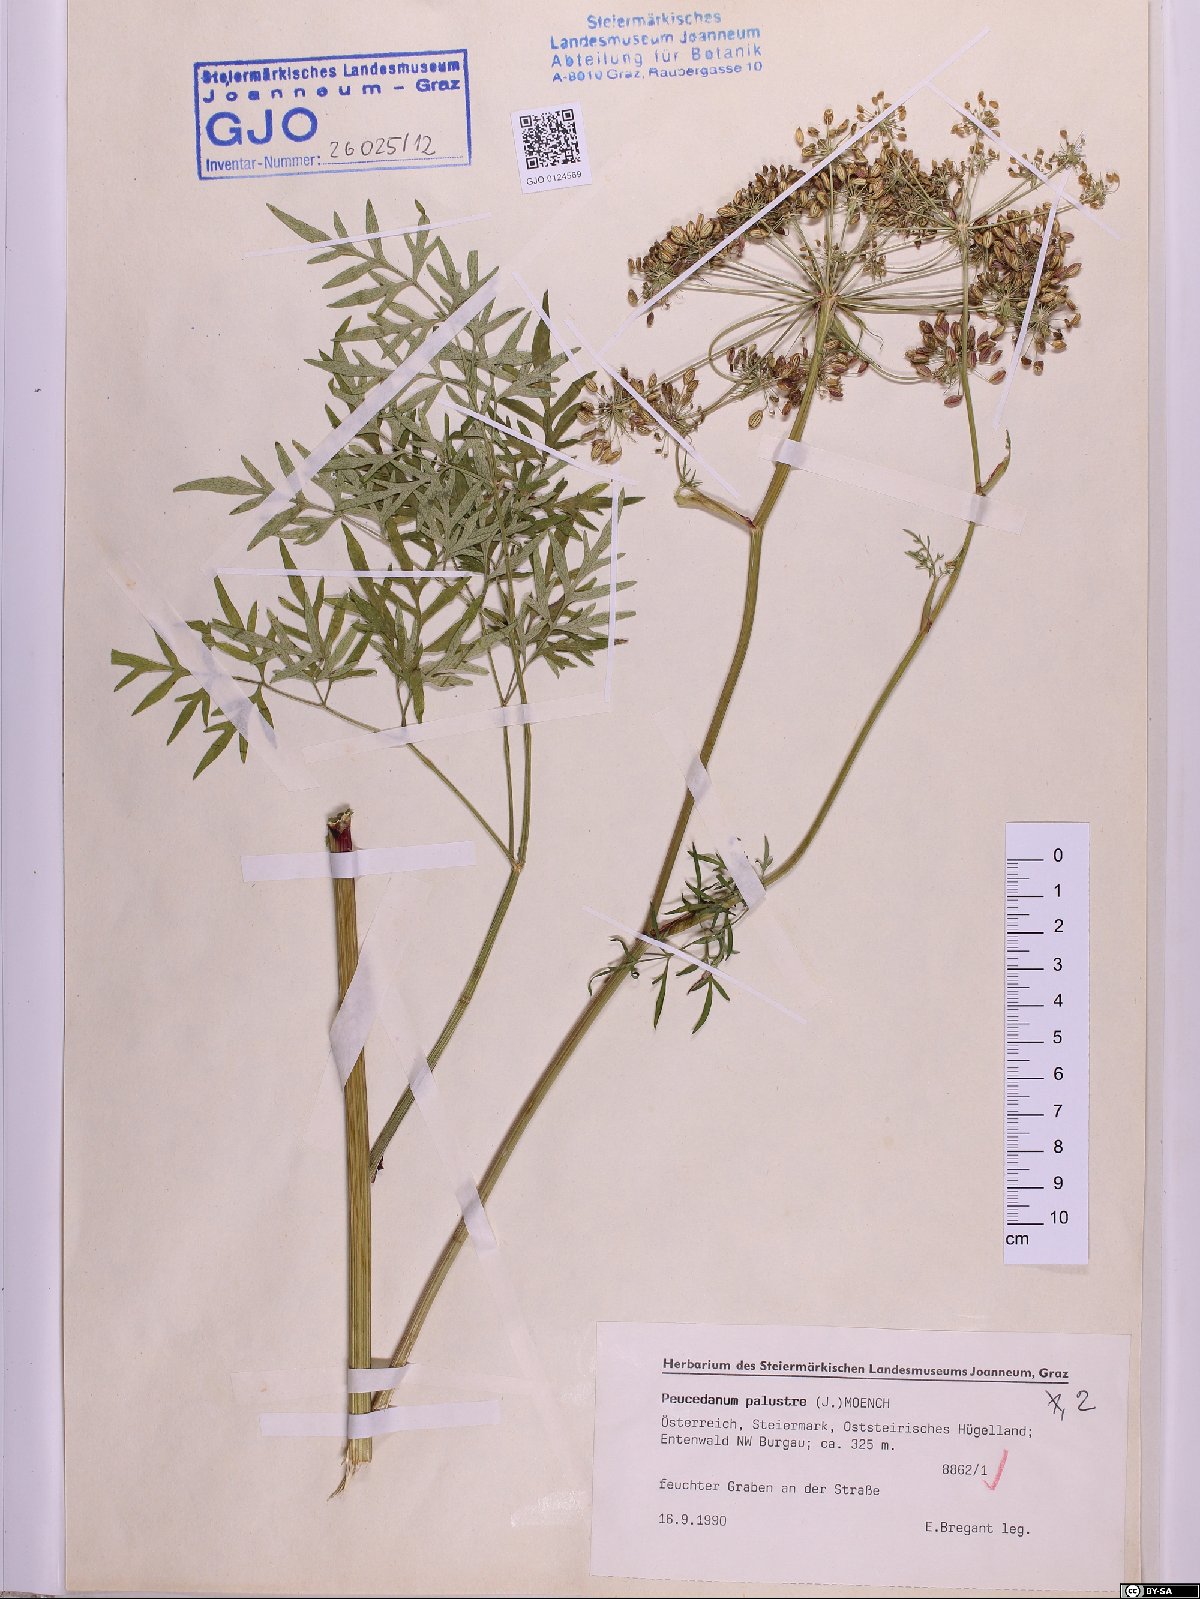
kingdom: Plantae
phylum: Tracheophyta
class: Magnoliopsida
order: Apiales
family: Apiaceae
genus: Thysselinum
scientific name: Thysselinum palustre
